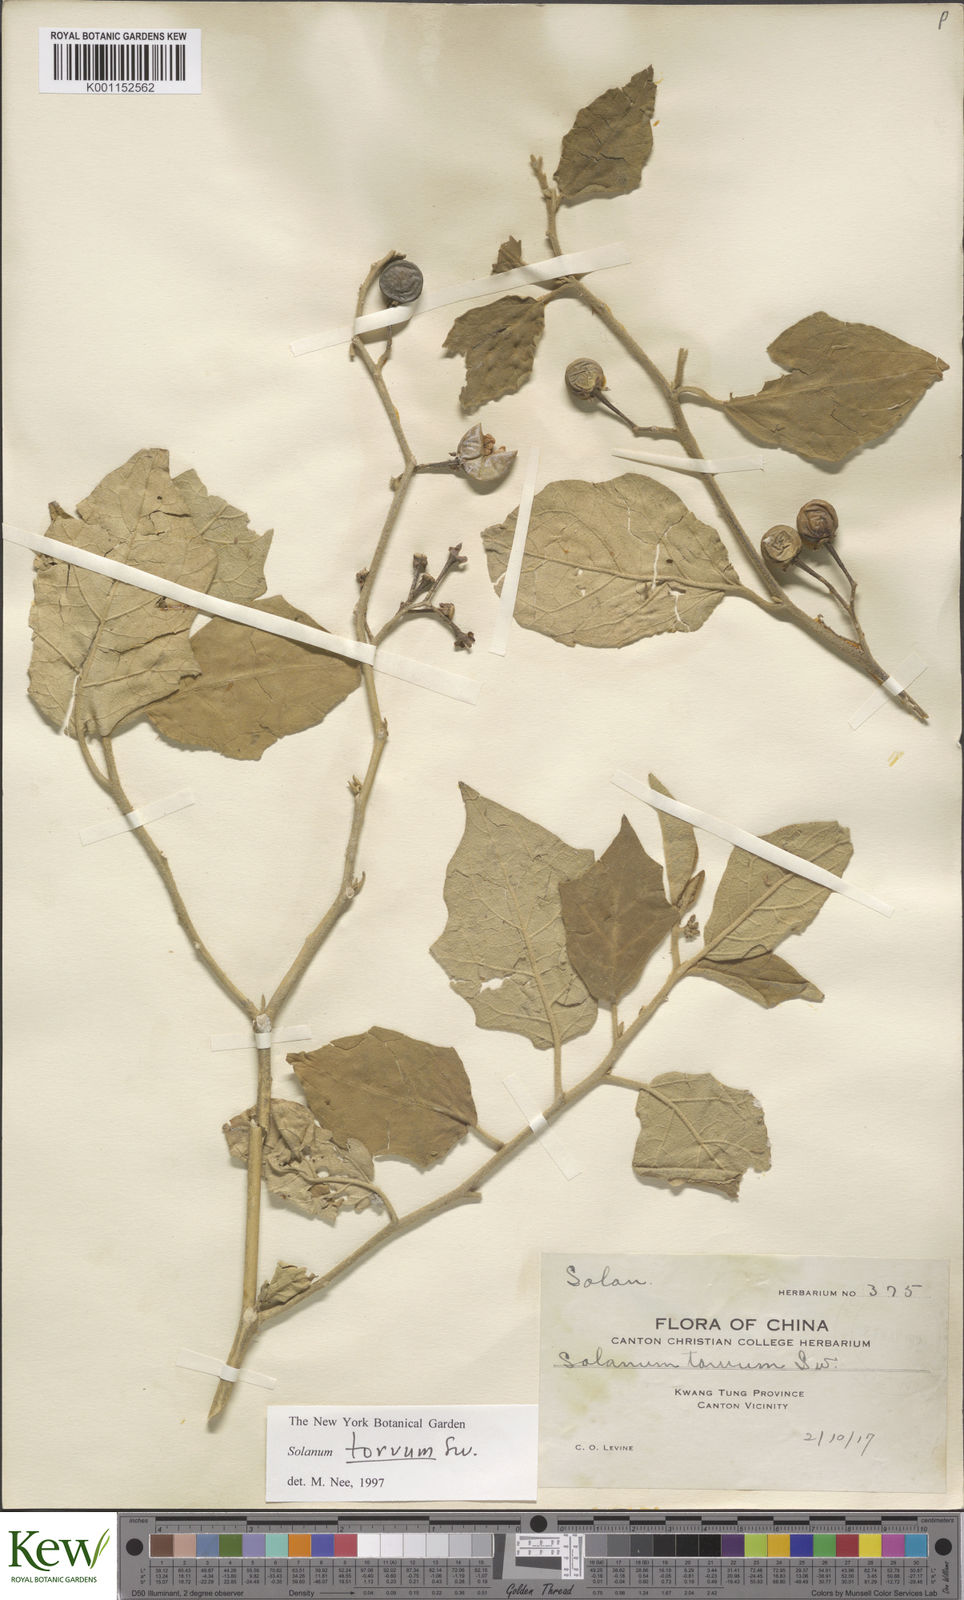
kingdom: Plantae
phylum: Tracheophyta
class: Magnoliopsida
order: Solanales
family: Solanaceae
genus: Solanum
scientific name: Solanum torvum
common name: Turkey berry
